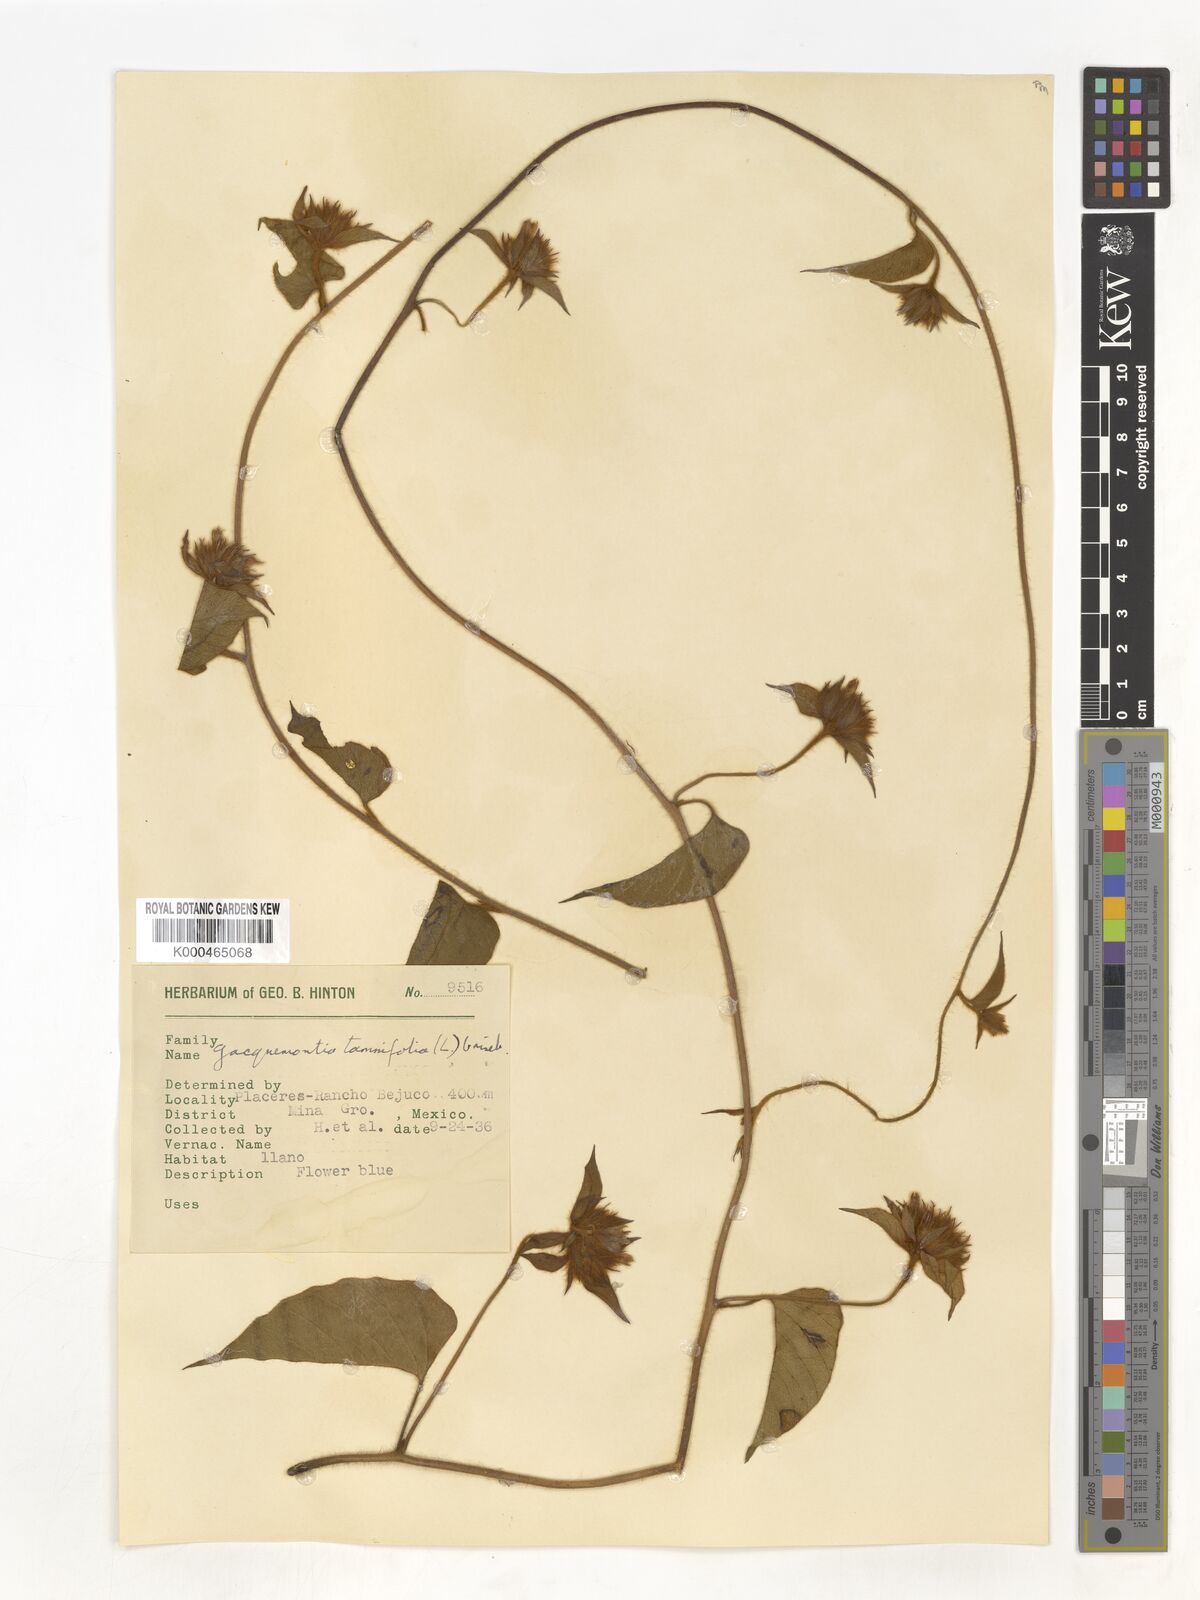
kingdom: Plantae
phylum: Tracheophyta
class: Magnoliopsida
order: Solanales
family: Convolvulaceae
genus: Jacquemontia
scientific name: Jacquemontia tamnifolia
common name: Hairy clustervine
